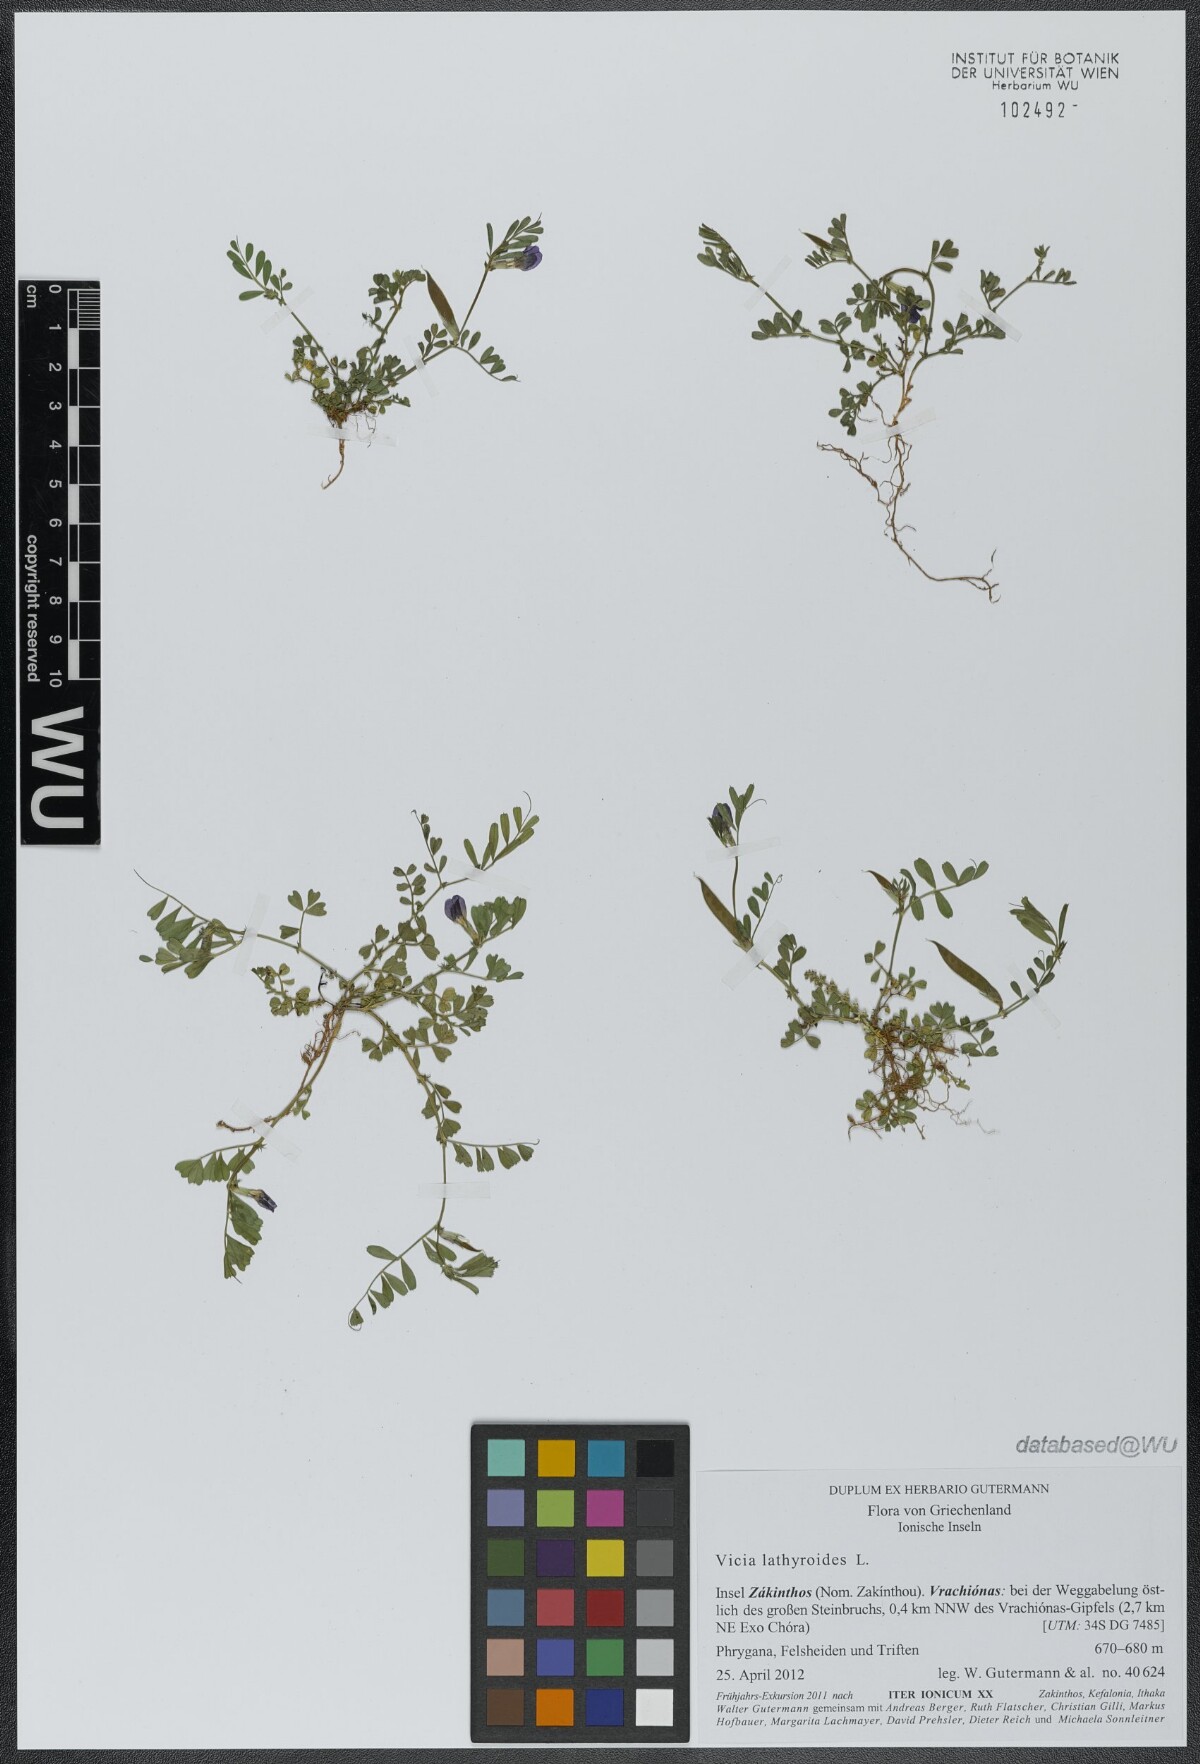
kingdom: Plantae
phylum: Tracheophyta
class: Magnoliopsida
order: Fabales
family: Fabaceae
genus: Vicia
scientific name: Vicia lathyroides
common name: Spring vetch
